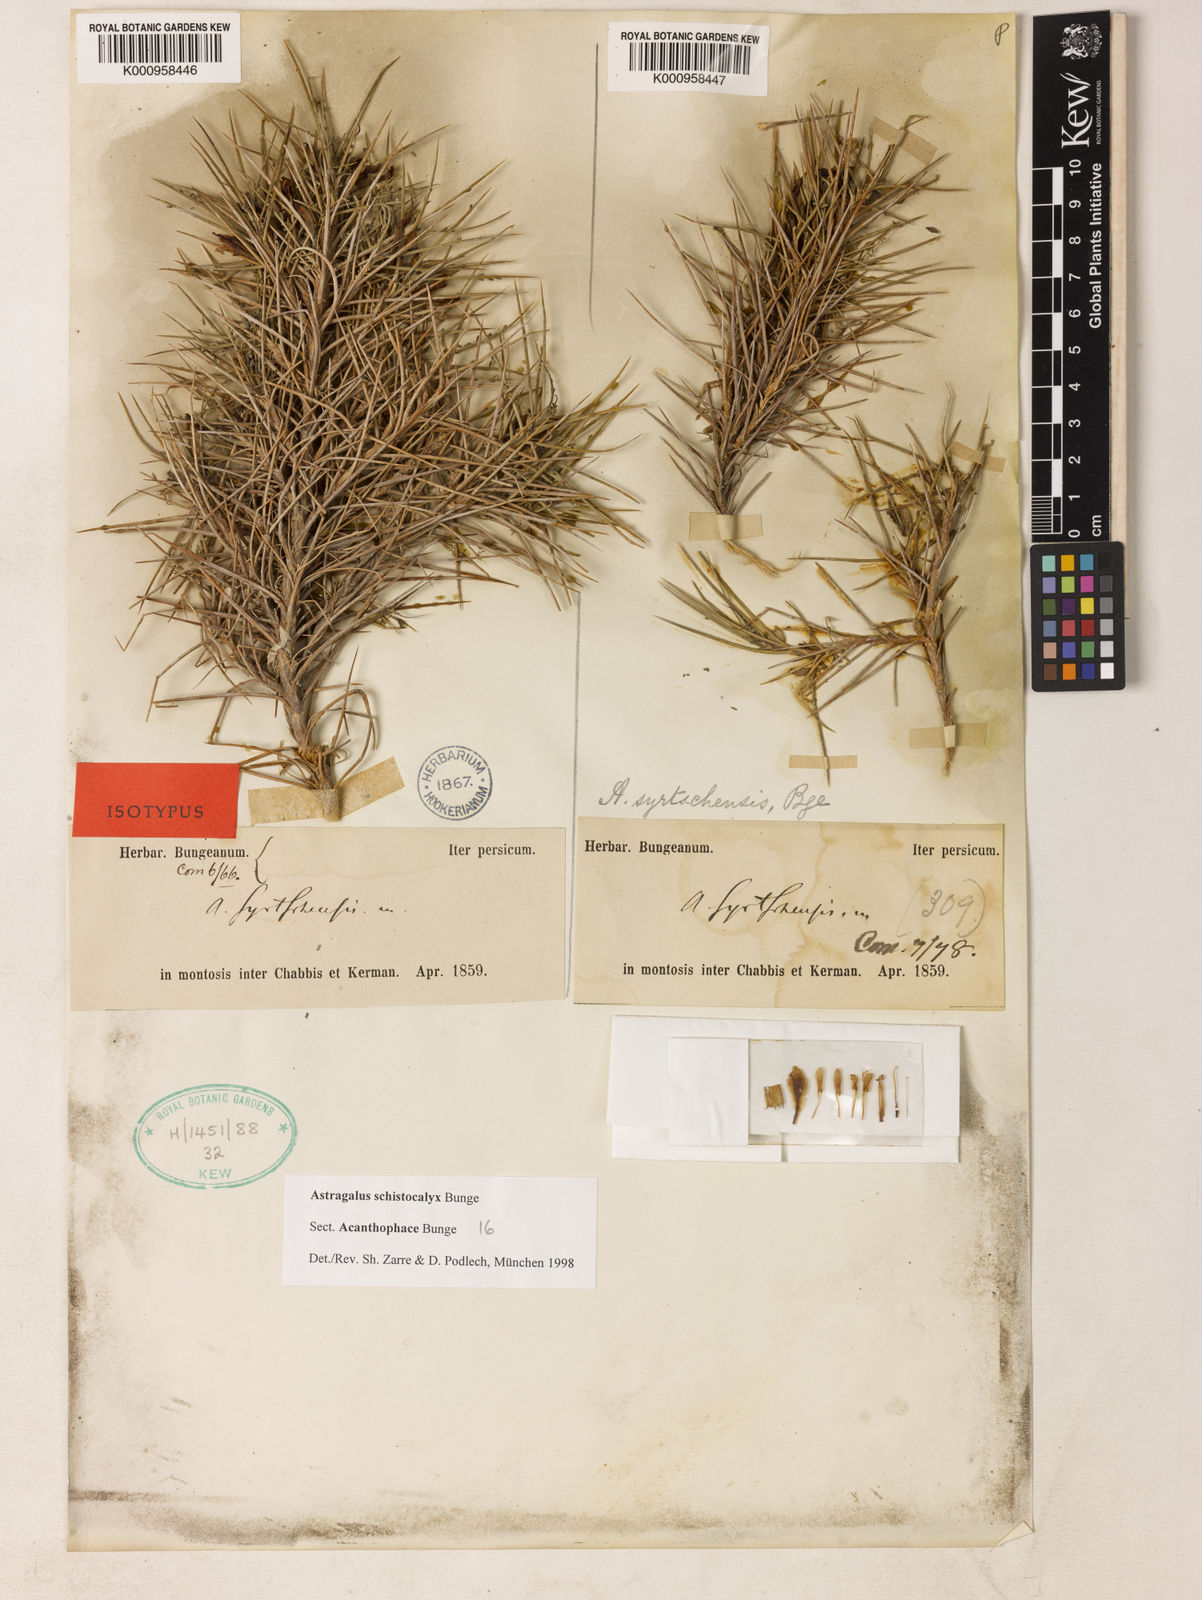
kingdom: Plantae
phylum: Tracheophyta
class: Magnoliopsida
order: Fabales
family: Fabaceae
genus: Astragalus
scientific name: Astragalus lycioides
